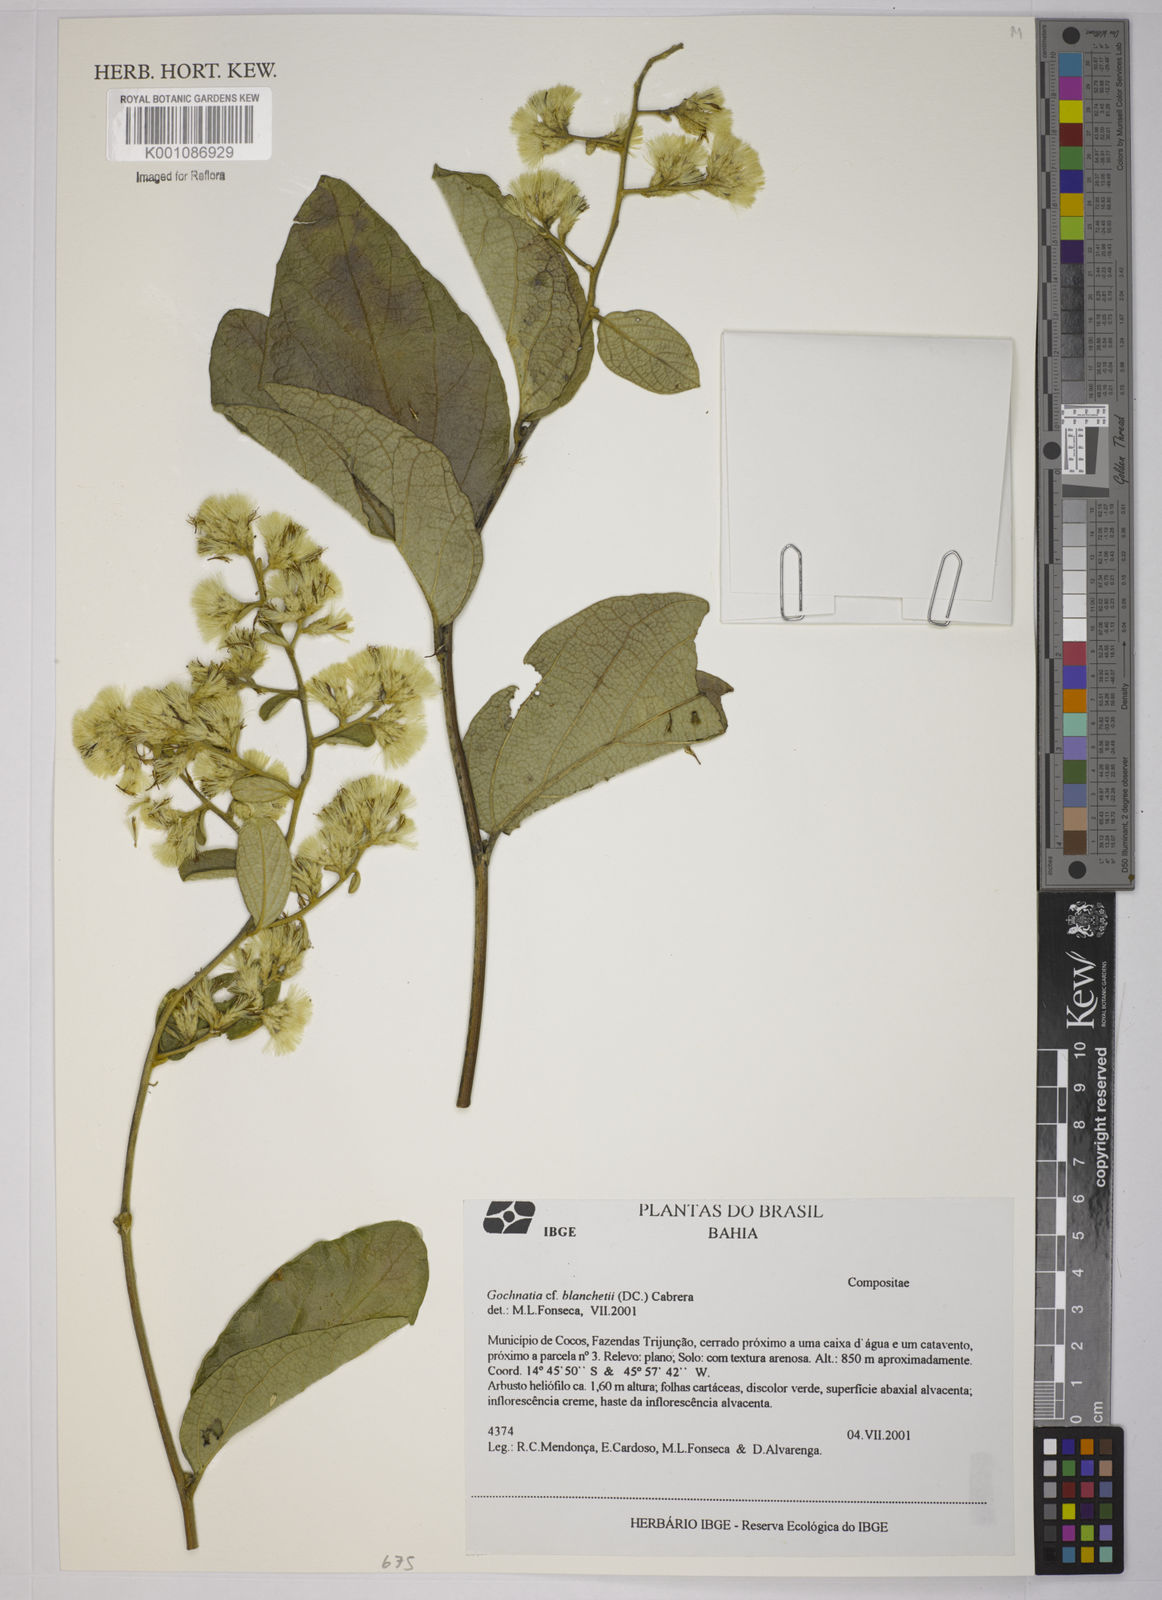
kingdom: Plantae
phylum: Tracheophyta
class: Magnoliopsida
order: Asterales
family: Asteraceae
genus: Moquiniastrum
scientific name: Moquiniastrum blanchetianum
